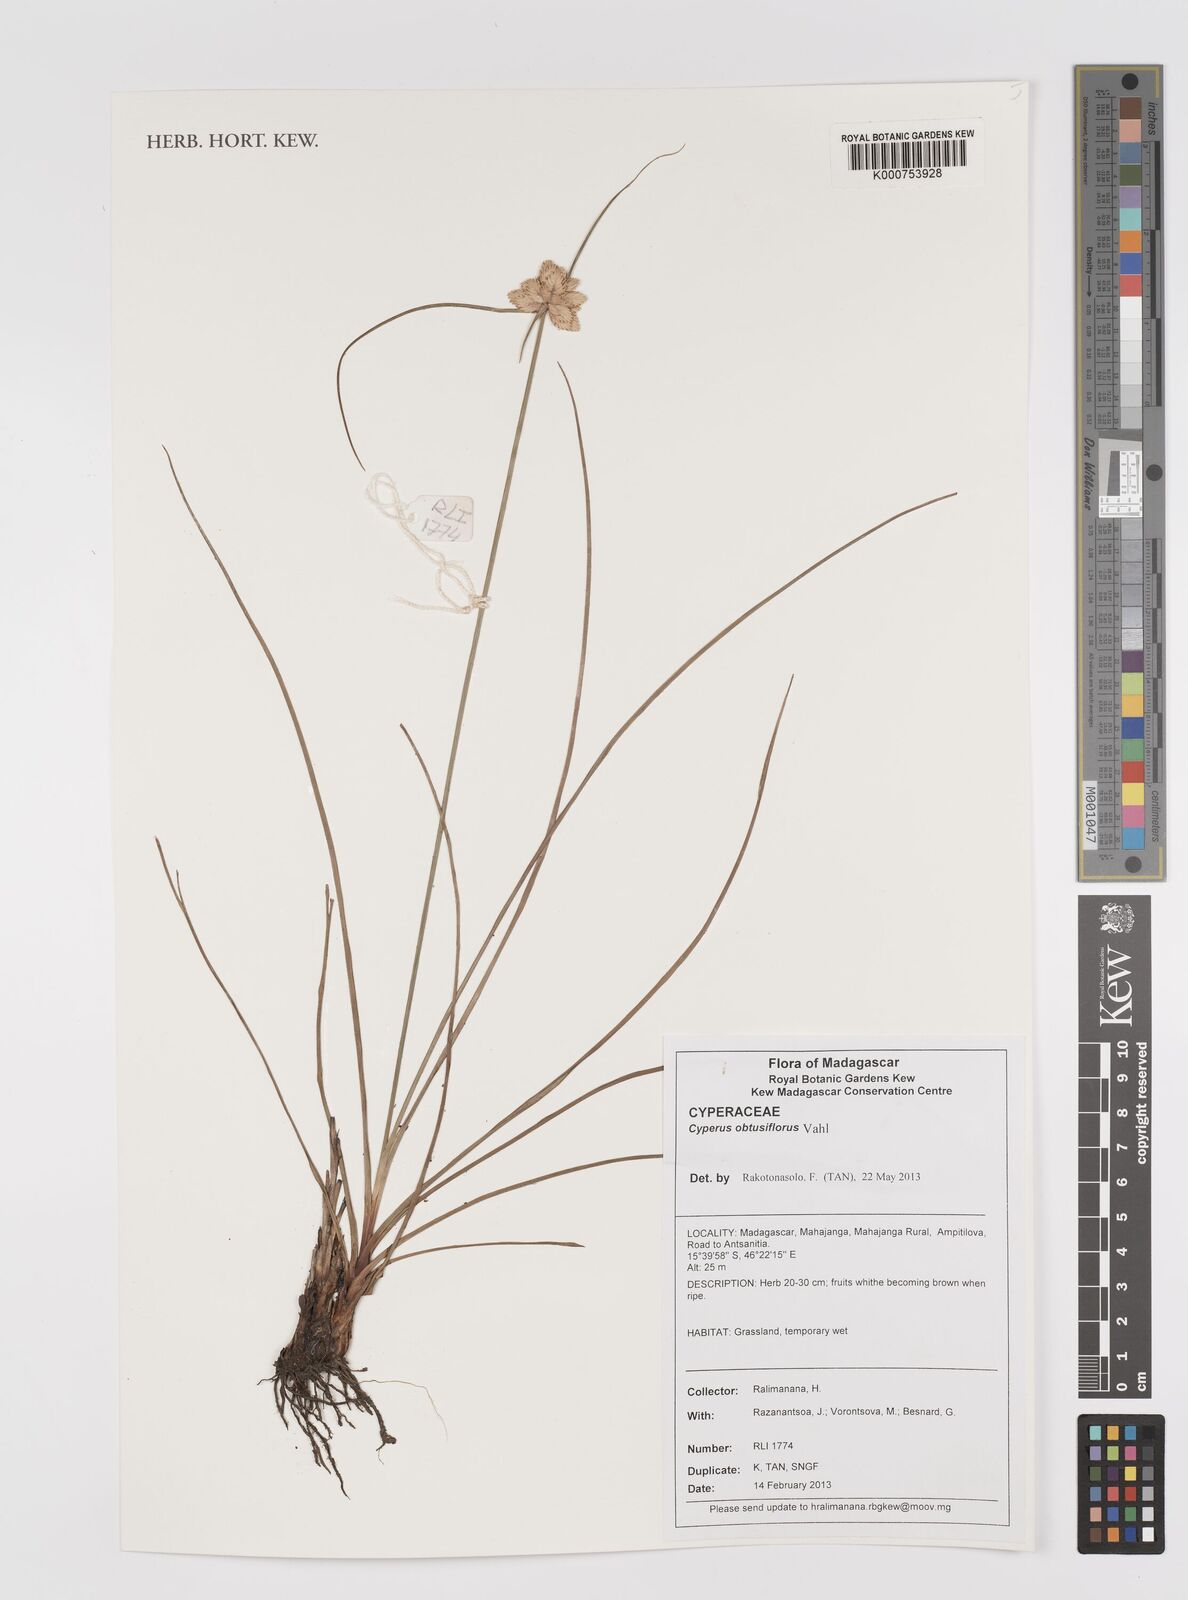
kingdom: Plantae
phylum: Tracheophyta
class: Liliopsida
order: Poales
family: Cyperaceae
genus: Cyperus
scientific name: Cyperus niveus
